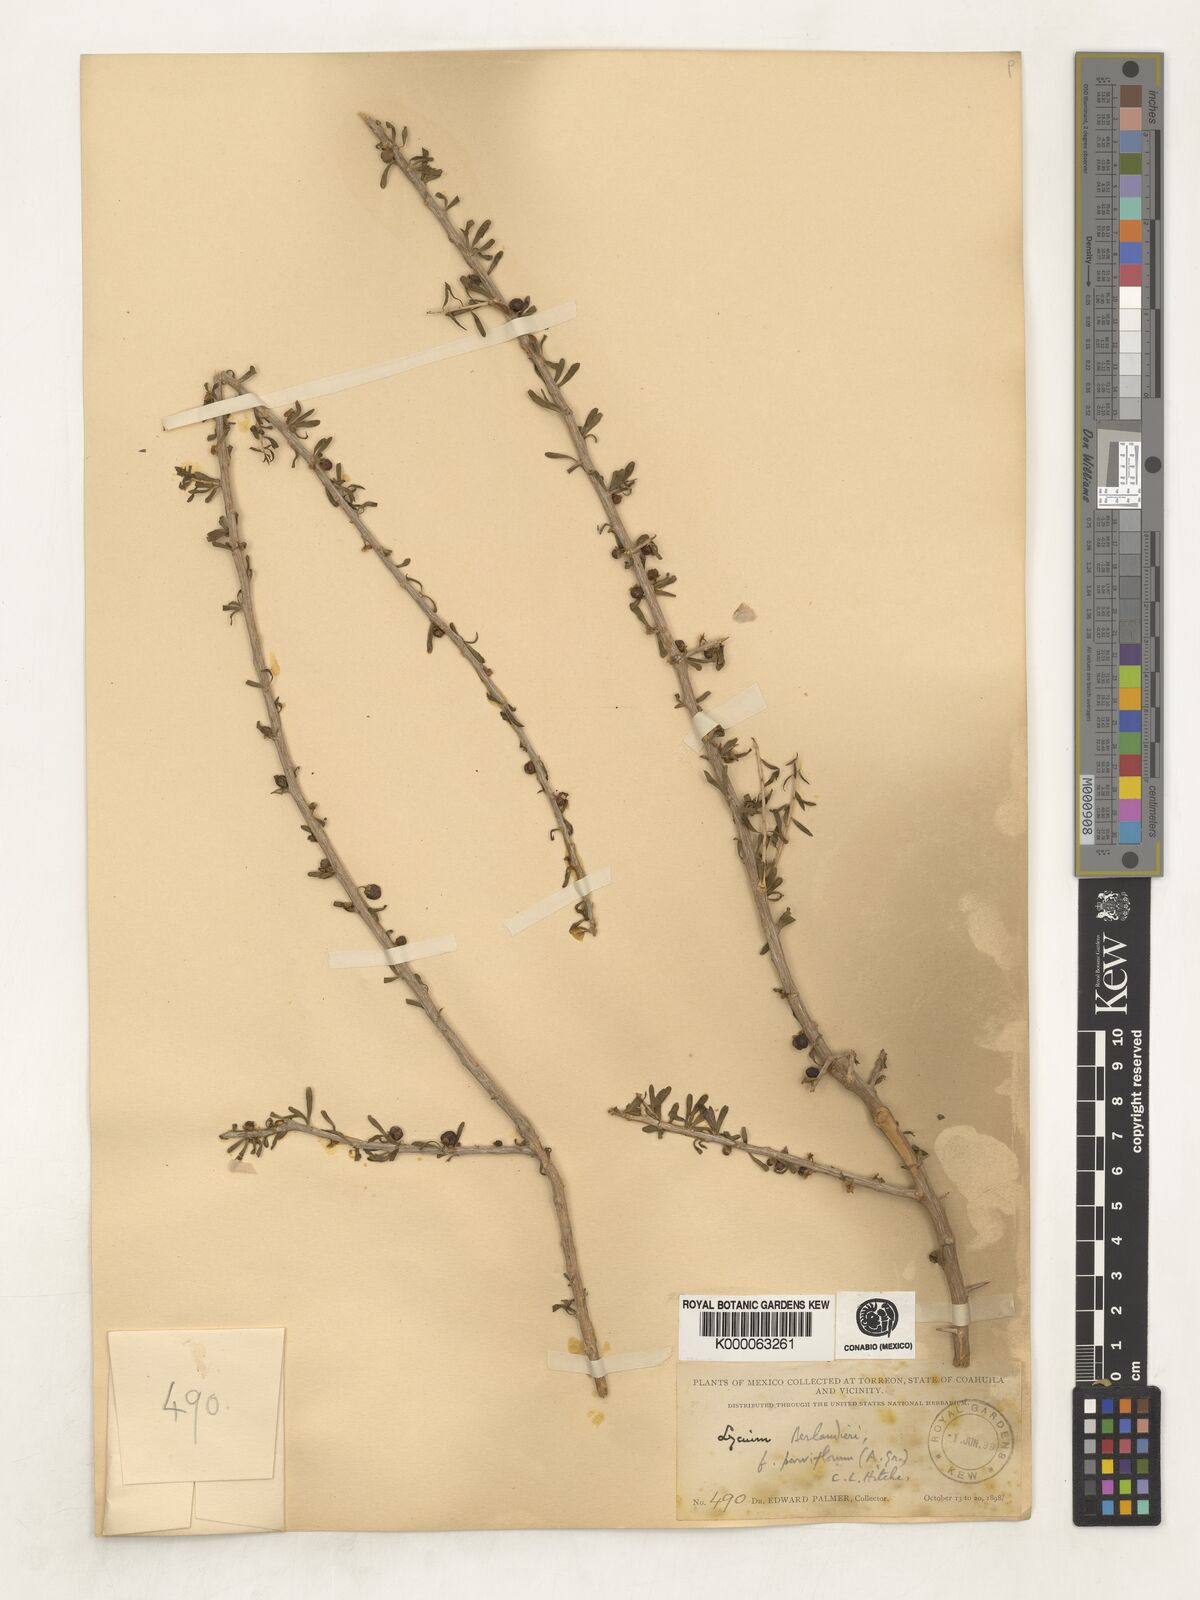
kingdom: Plantae
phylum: Tracheophyta
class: Magnoliopsida
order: Solanales
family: Solanaceae
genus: Lycium
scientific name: Lycium berlandieri
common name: Berlandier wolfberry
